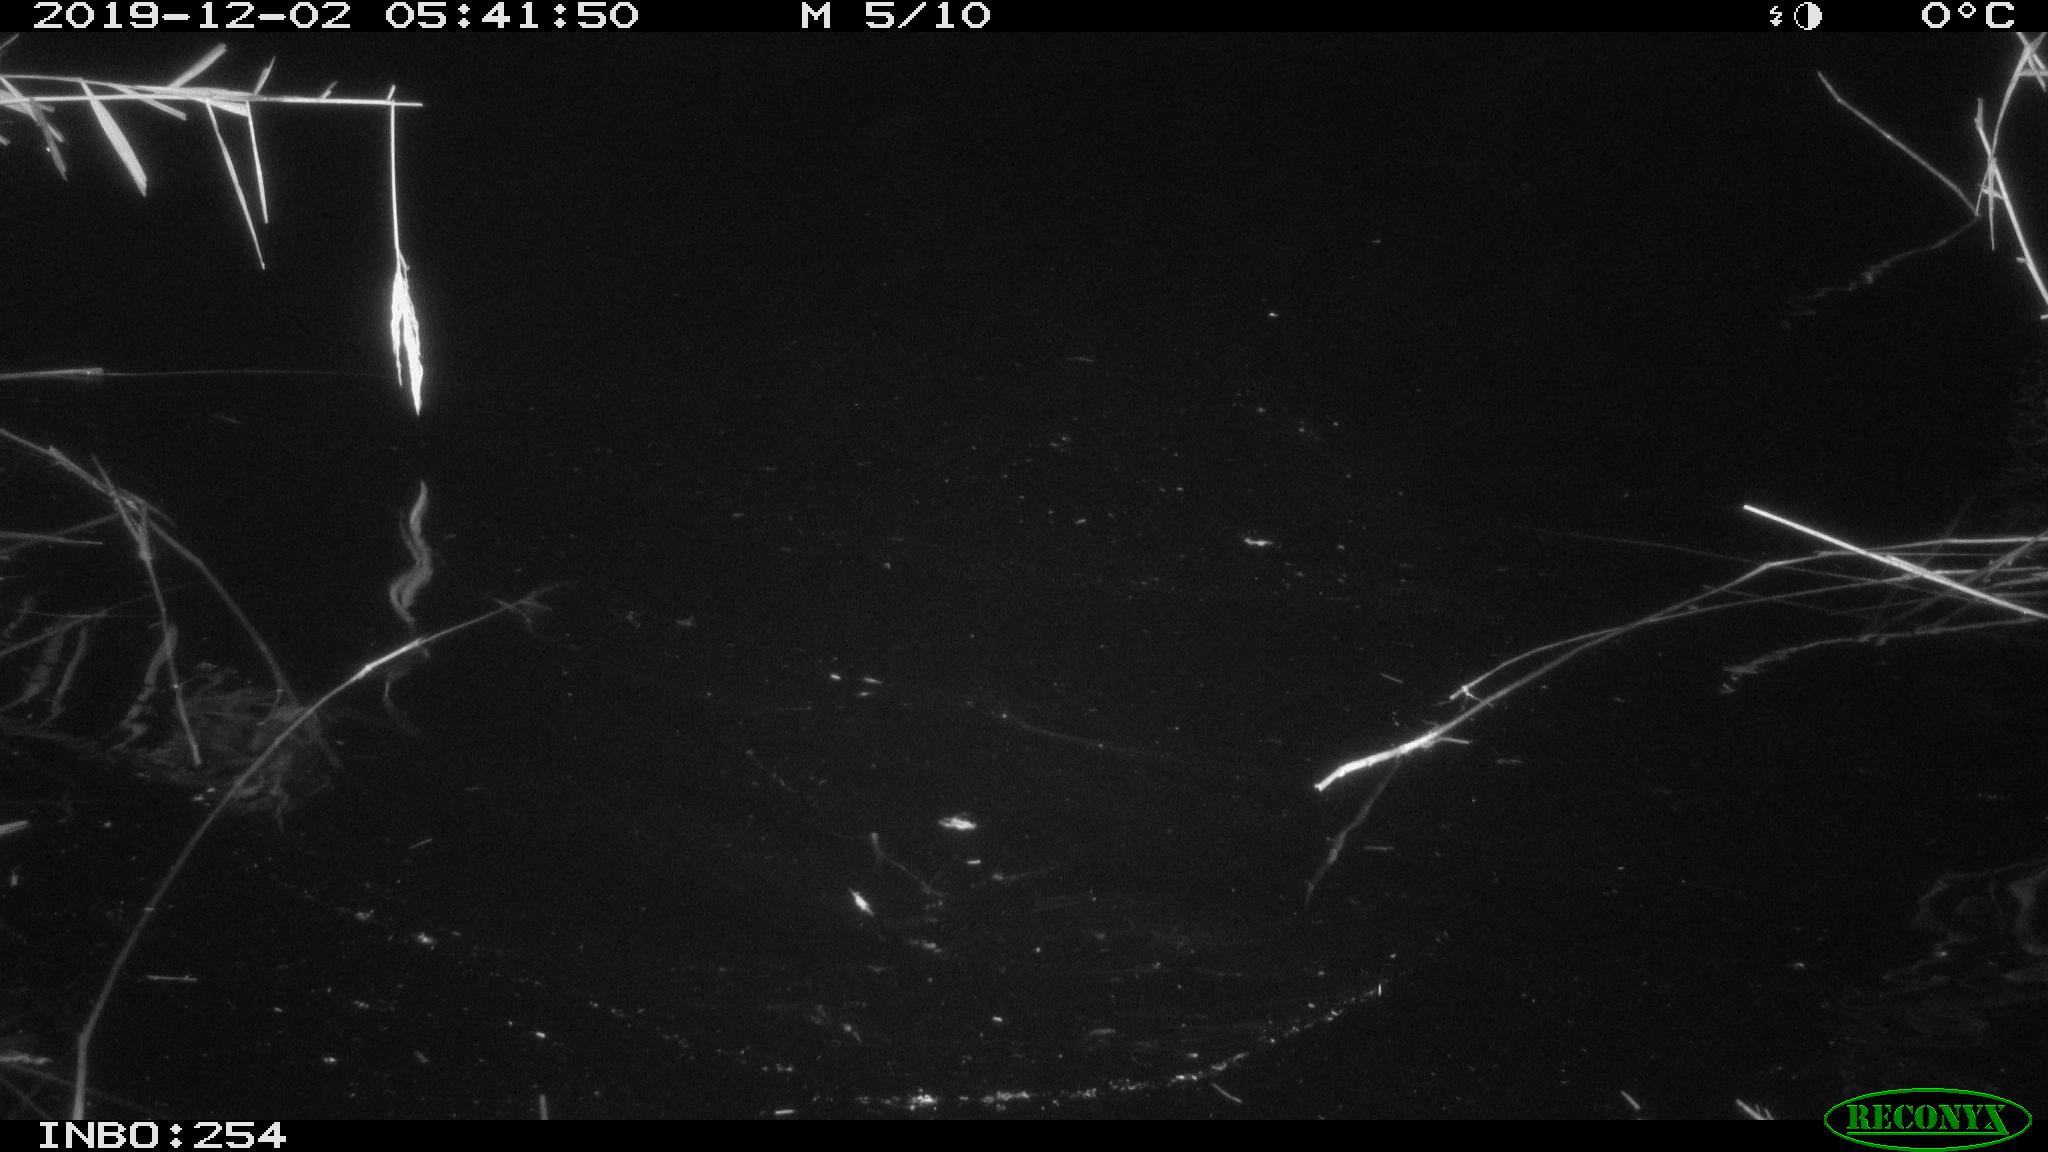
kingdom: Animalia
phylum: Chordata
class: Aves
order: Gruiformes
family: Rallidae
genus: Fulica
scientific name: Fulica atra
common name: Eurasian coot
